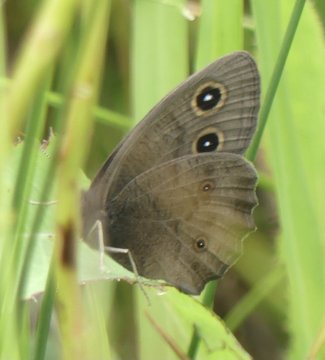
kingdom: Animalia
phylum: Arthropoda
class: Insecta
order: Lepidoptera
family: Nymphalidae
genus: Cercyonis
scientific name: Cercyonis pegala
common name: Common Wood-Nymph
